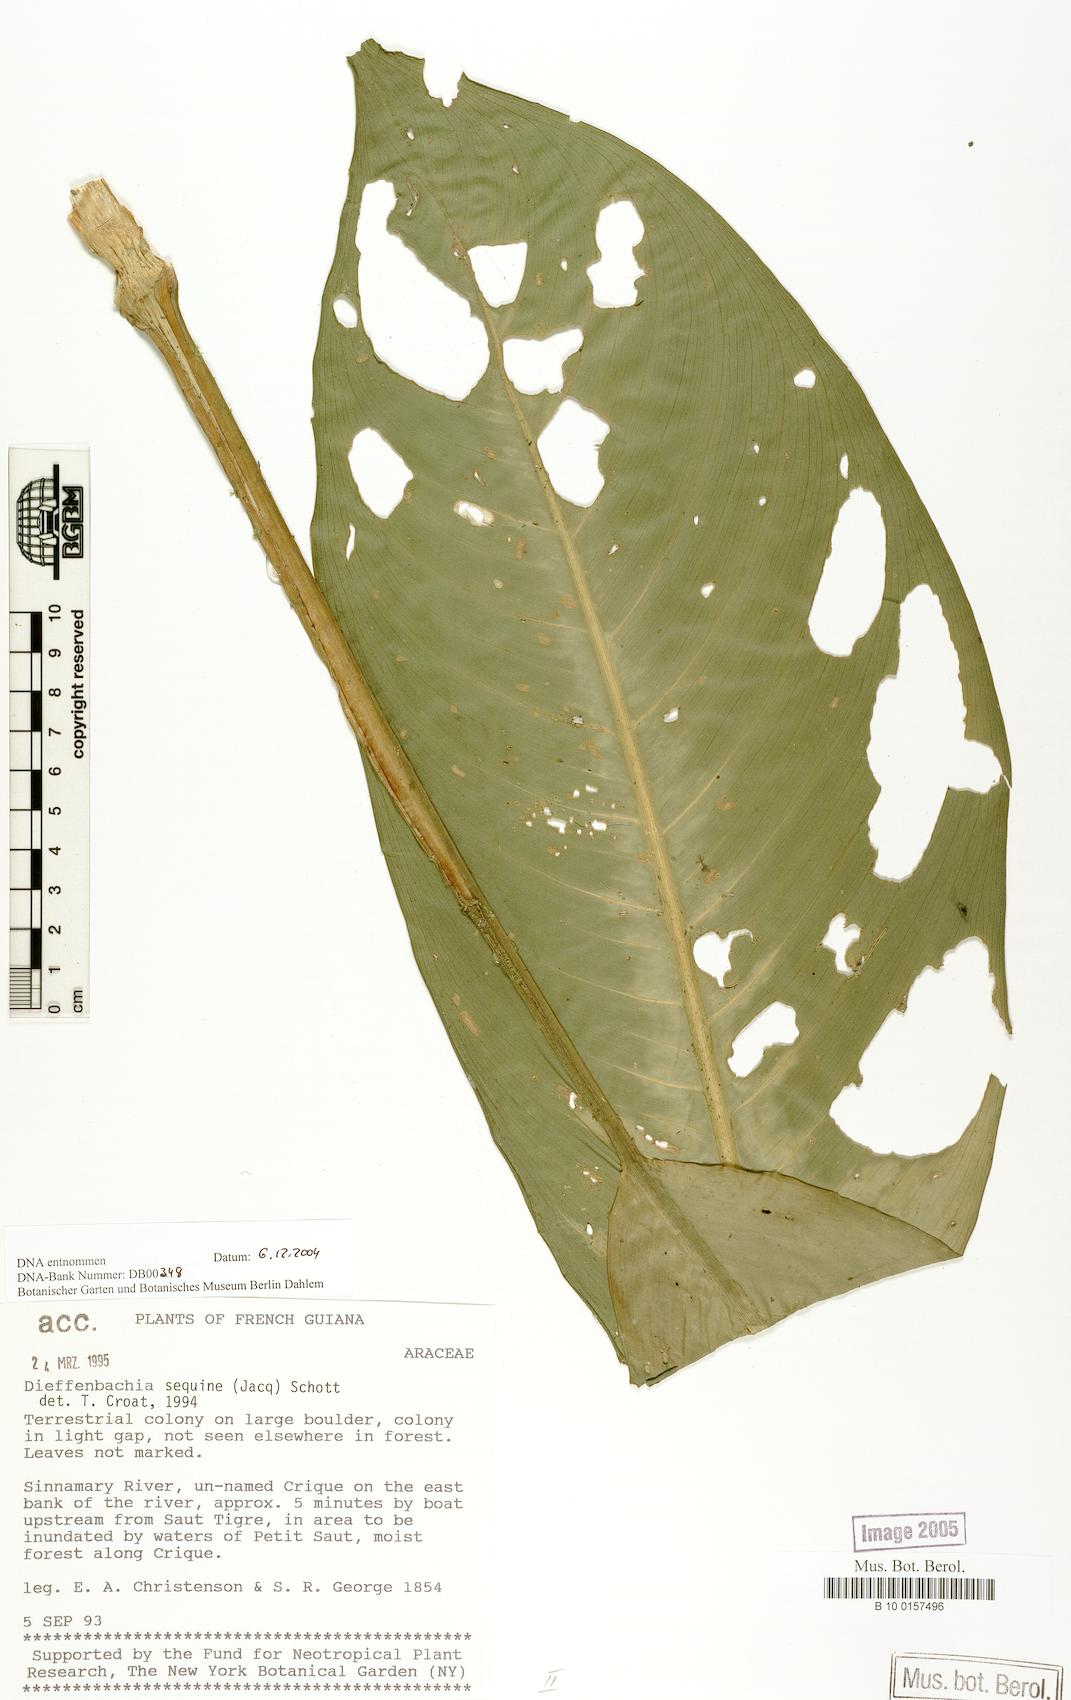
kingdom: Plantae
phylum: Tracheophyta
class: Liliopsida
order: Alismatales
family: Araceae
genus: Dieffenbachia
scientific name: Dieffenbachia seguine
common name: Dumbcane
